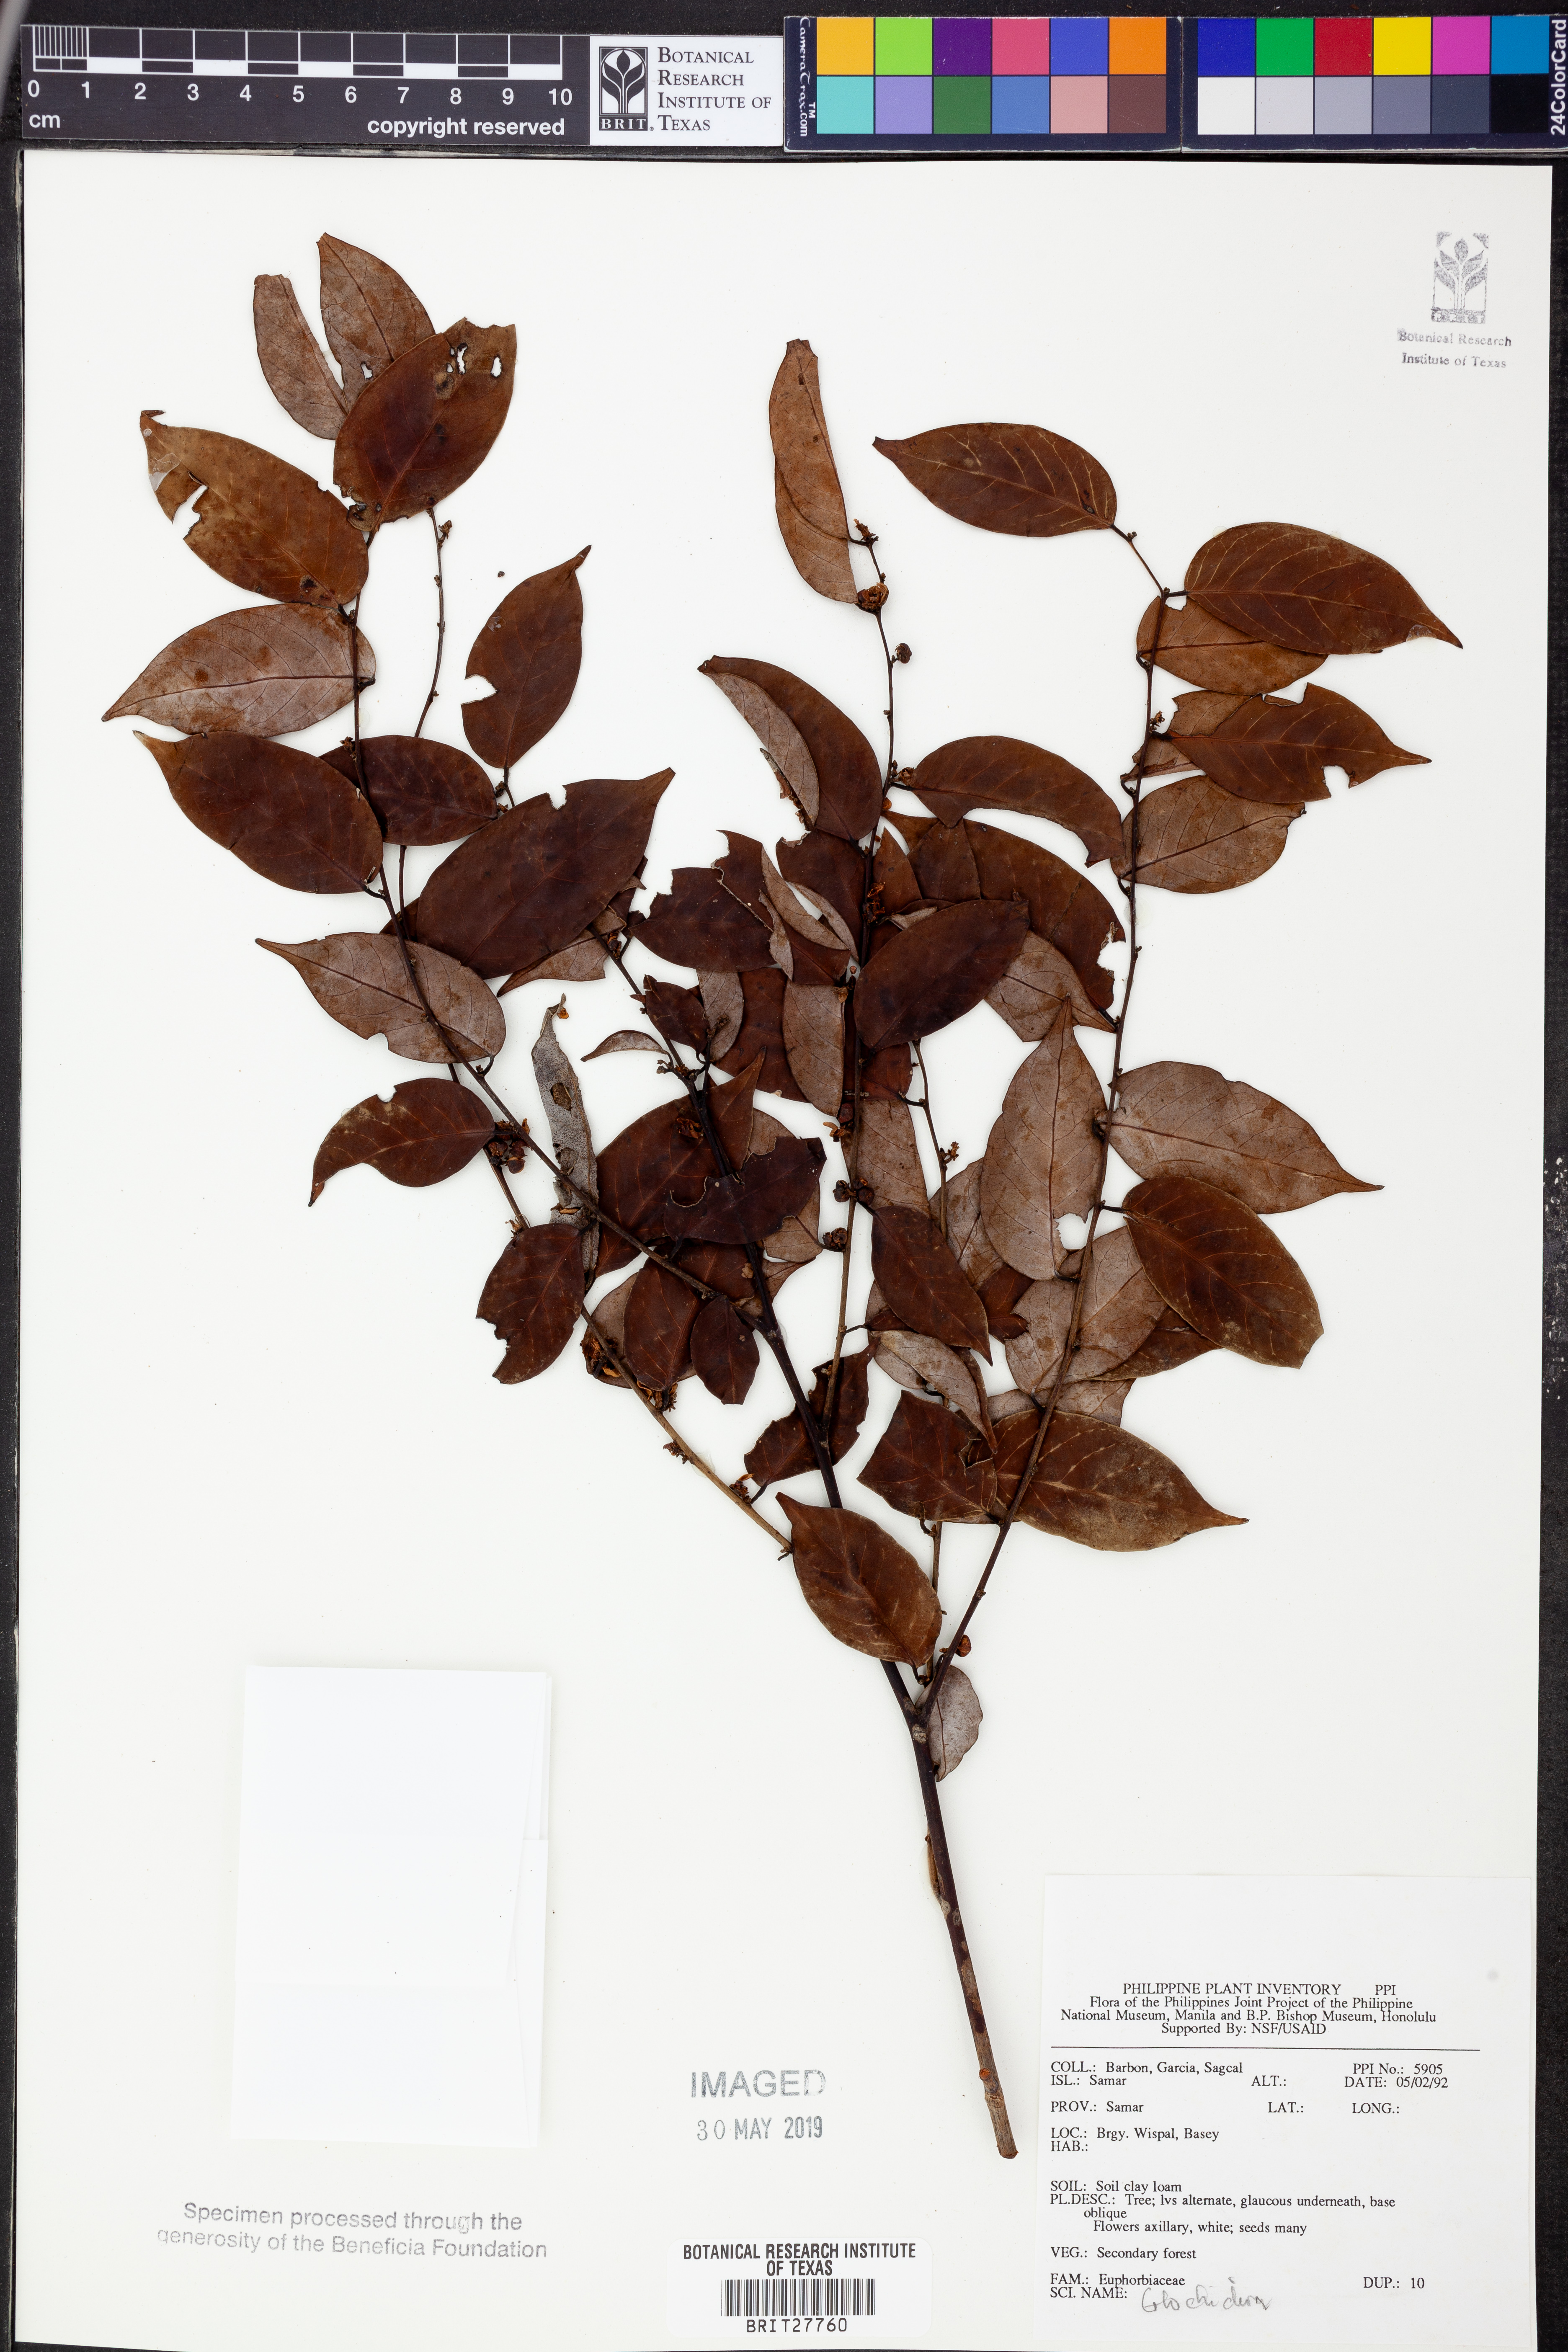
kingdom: Plantae
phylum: Tracheophyta
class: Magnoliopsida
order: Malpighiales
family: Phyllanthaceae
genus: Glochidion
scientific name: Glochidion
